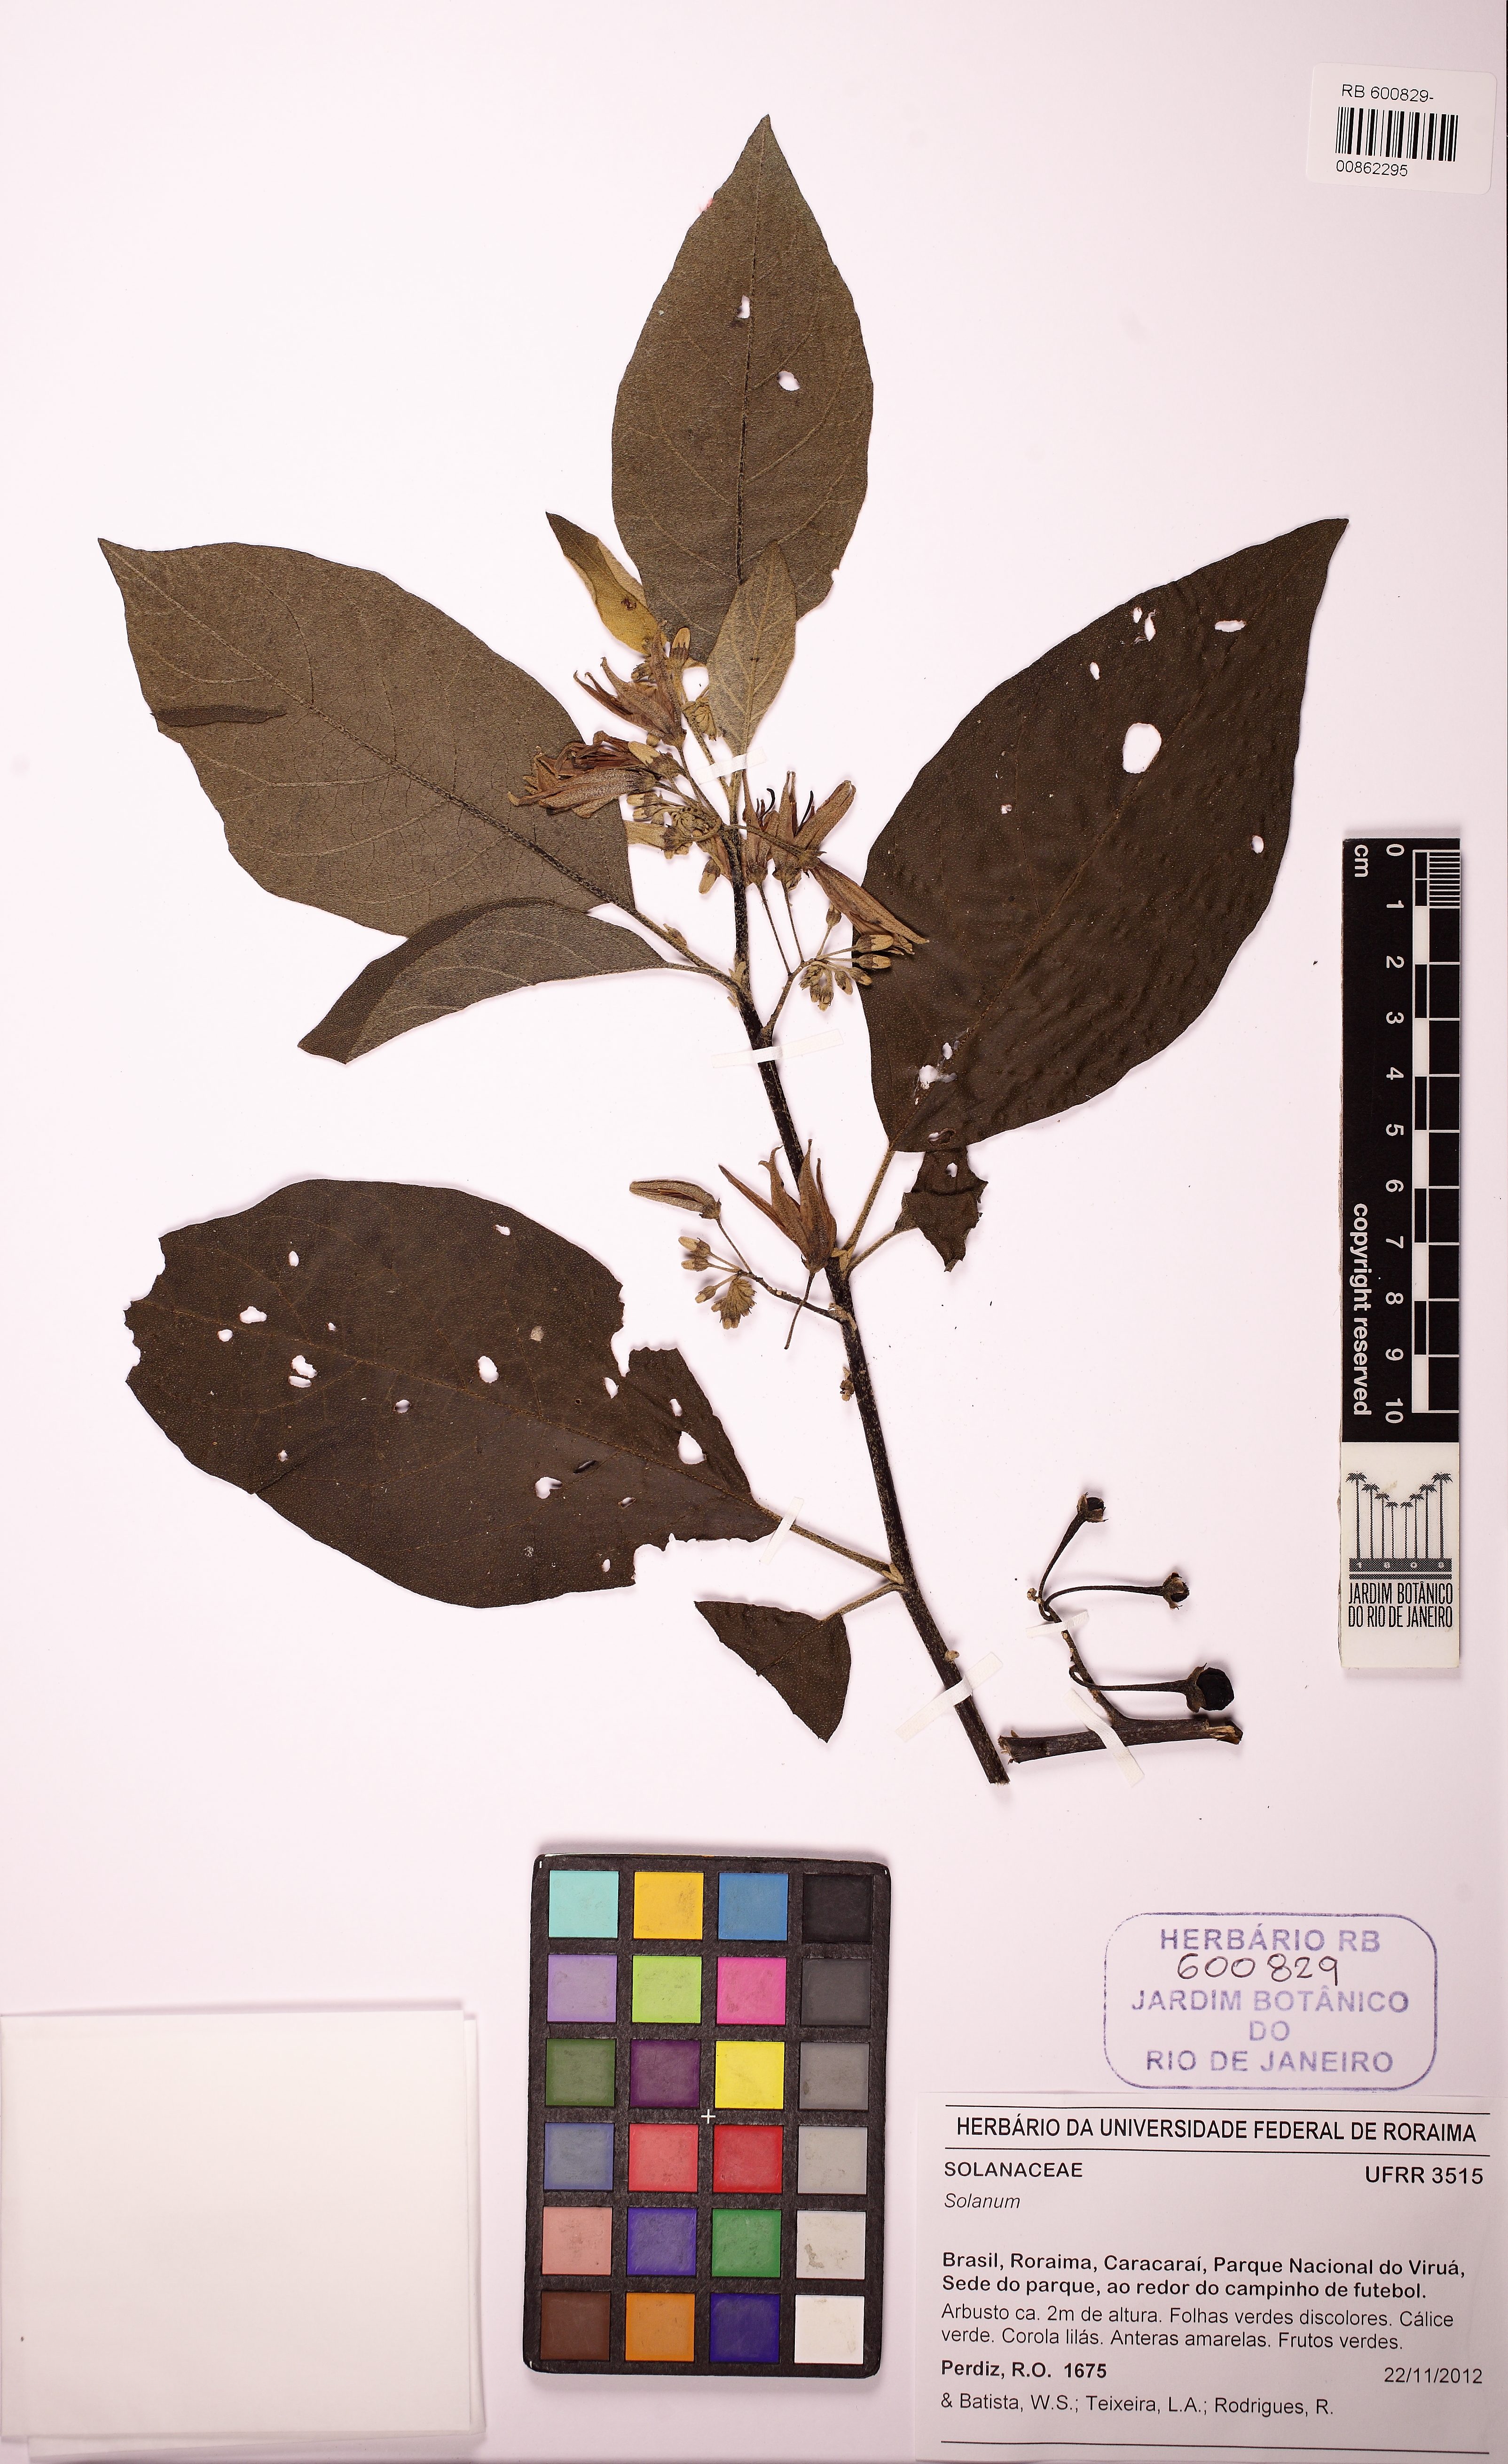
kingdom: Plantae
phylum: Tracheophyta
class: Magnoliopsida
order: Solanales
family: Solanaceae
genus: Solanum
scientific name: Solanum subinerme
